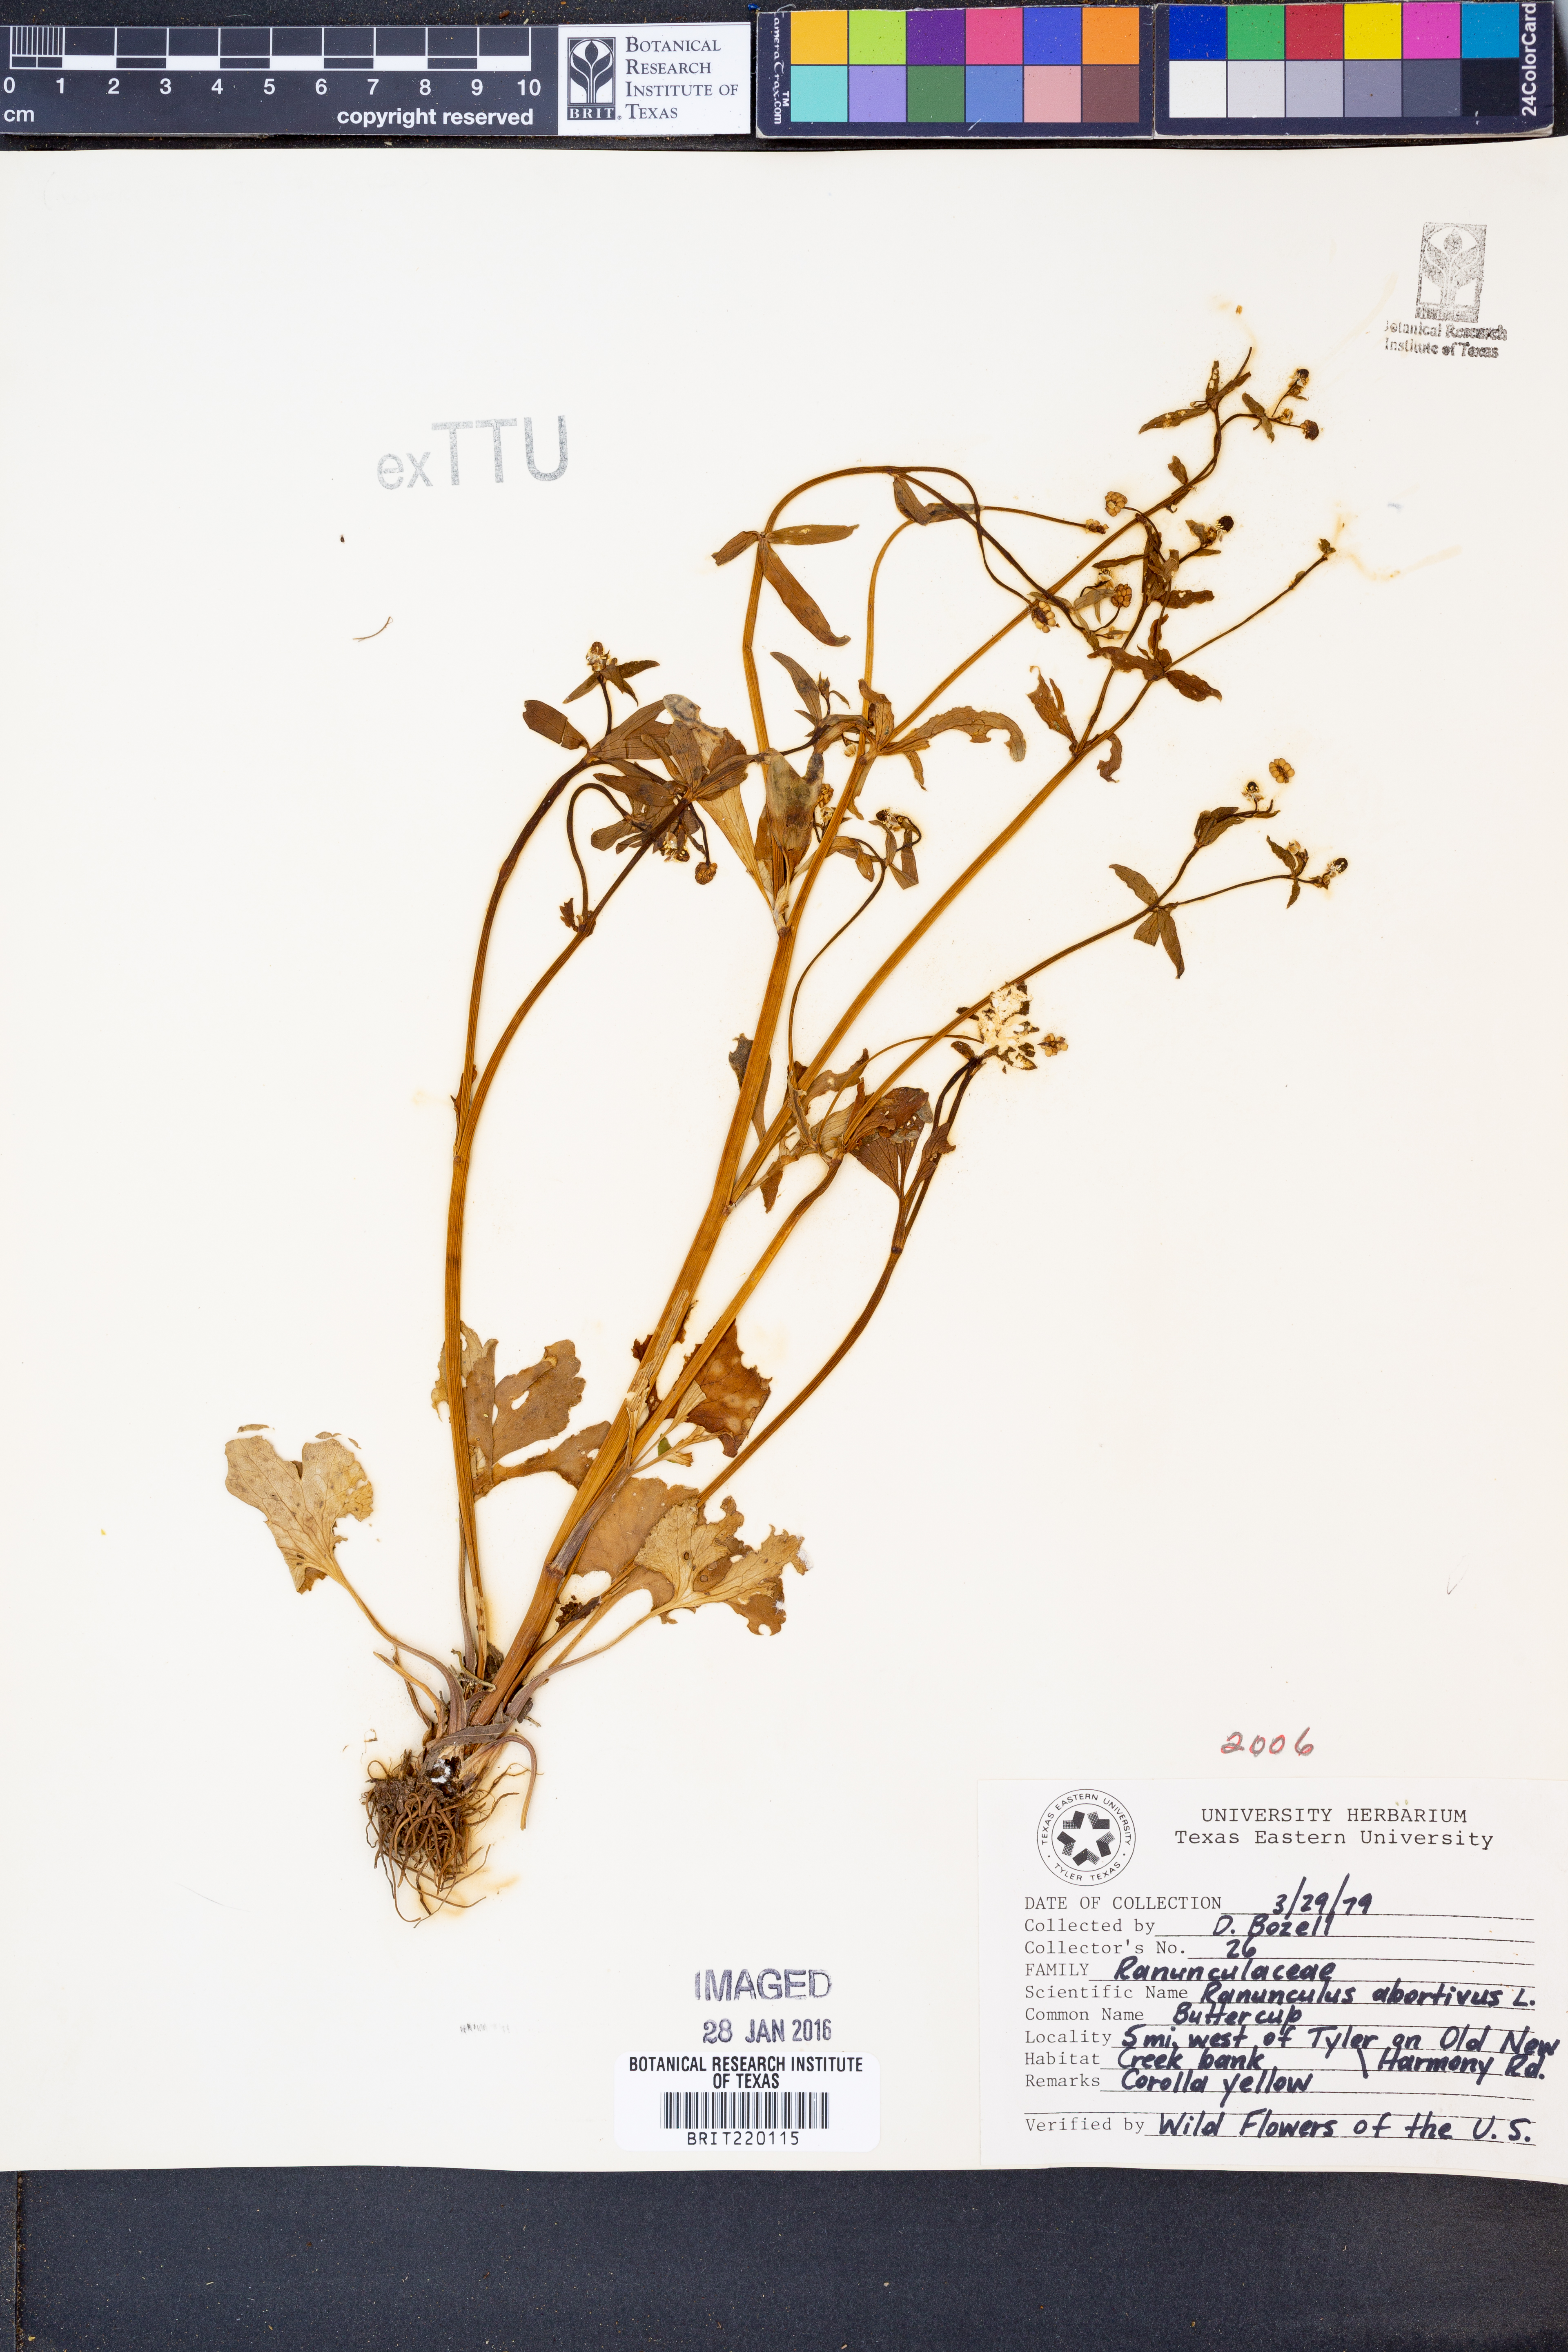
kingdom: Plantae
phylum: Tracheophyta
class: Magnoliopsida
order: Ranunculales
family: Ranunculaceae
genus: Ranunculus
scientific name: Ranunculus abortivus
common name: Early wood buttercup
